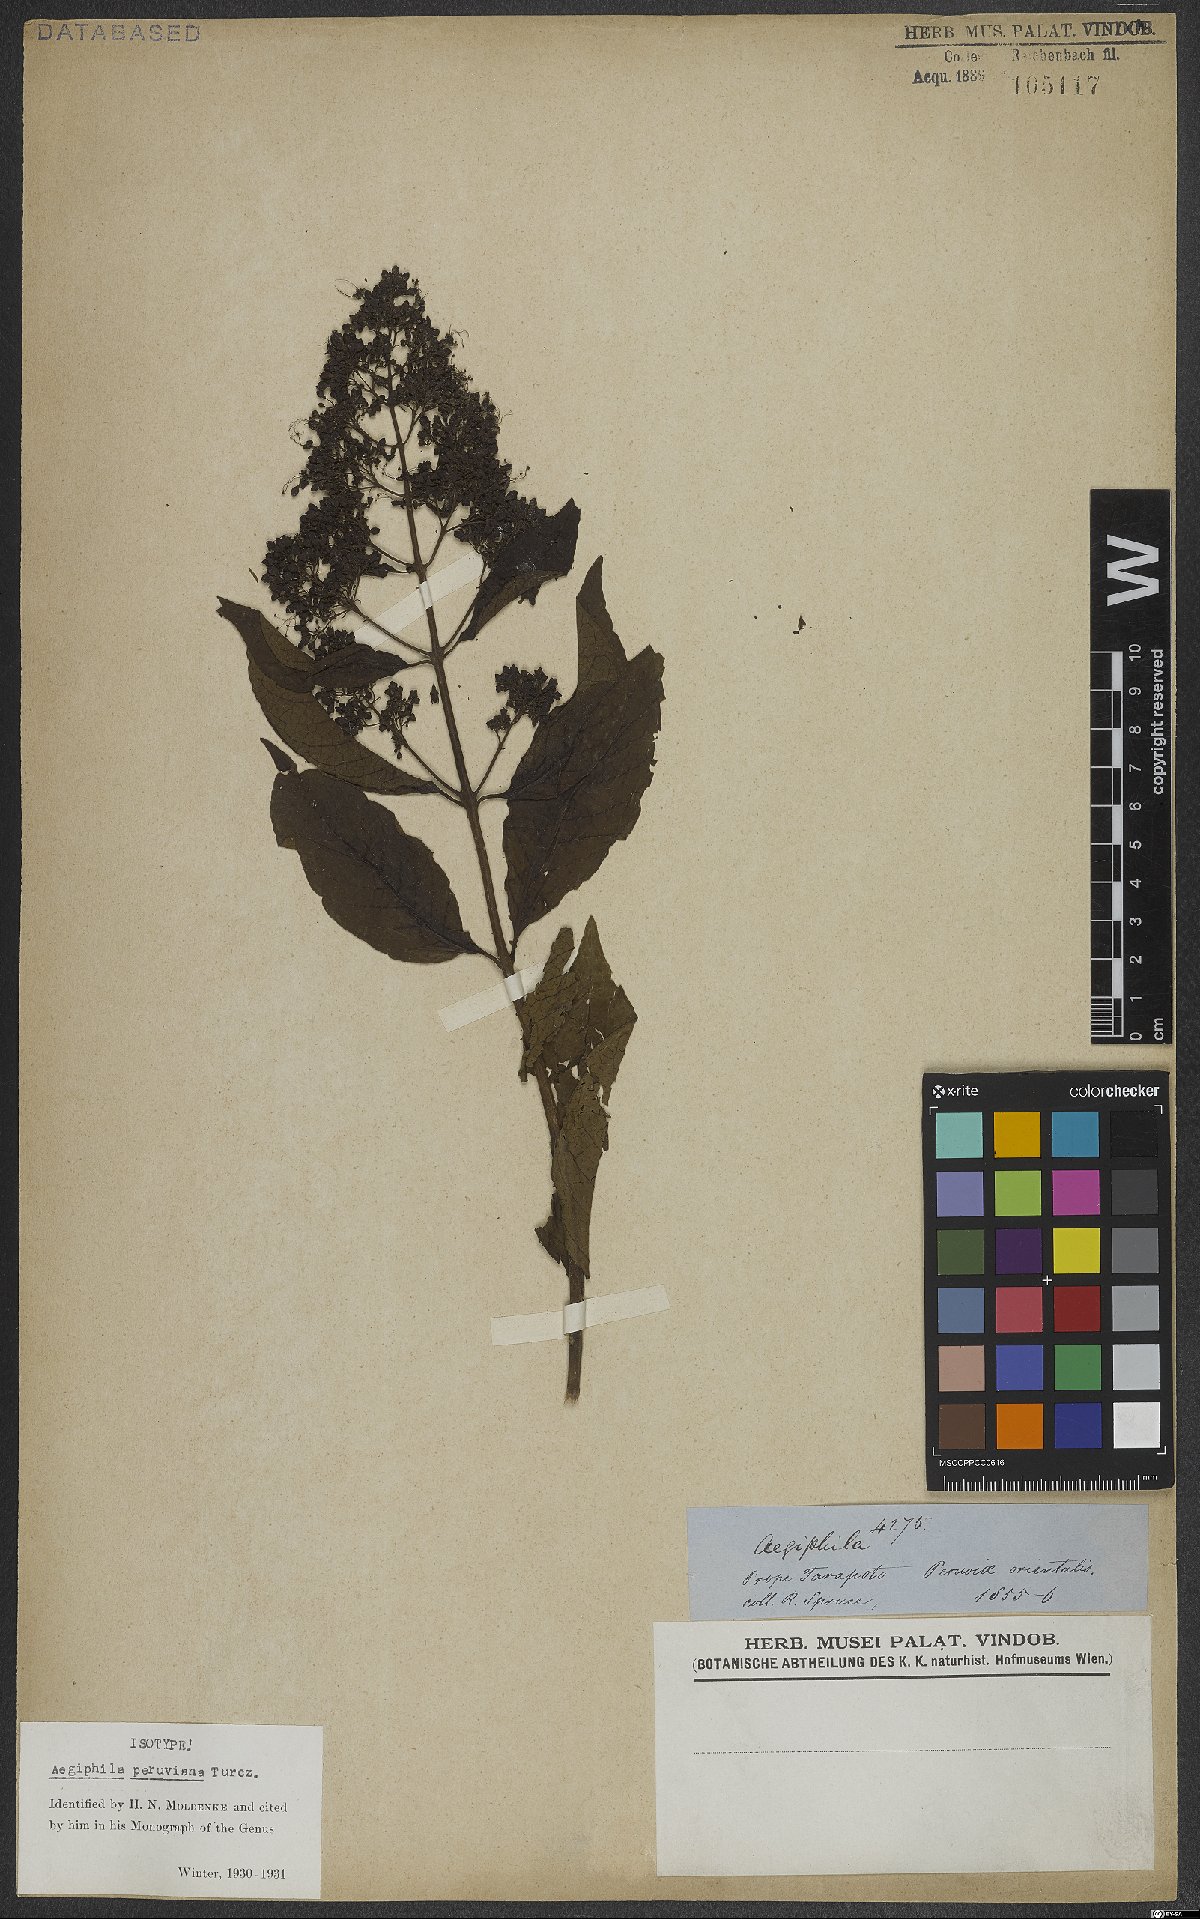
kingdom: Plantae
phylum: Tracheophyta
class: Magnoliopsida
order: Lamiales
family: Lamiaceae
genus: Aegiphila
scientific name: Aegiphila peruviana
